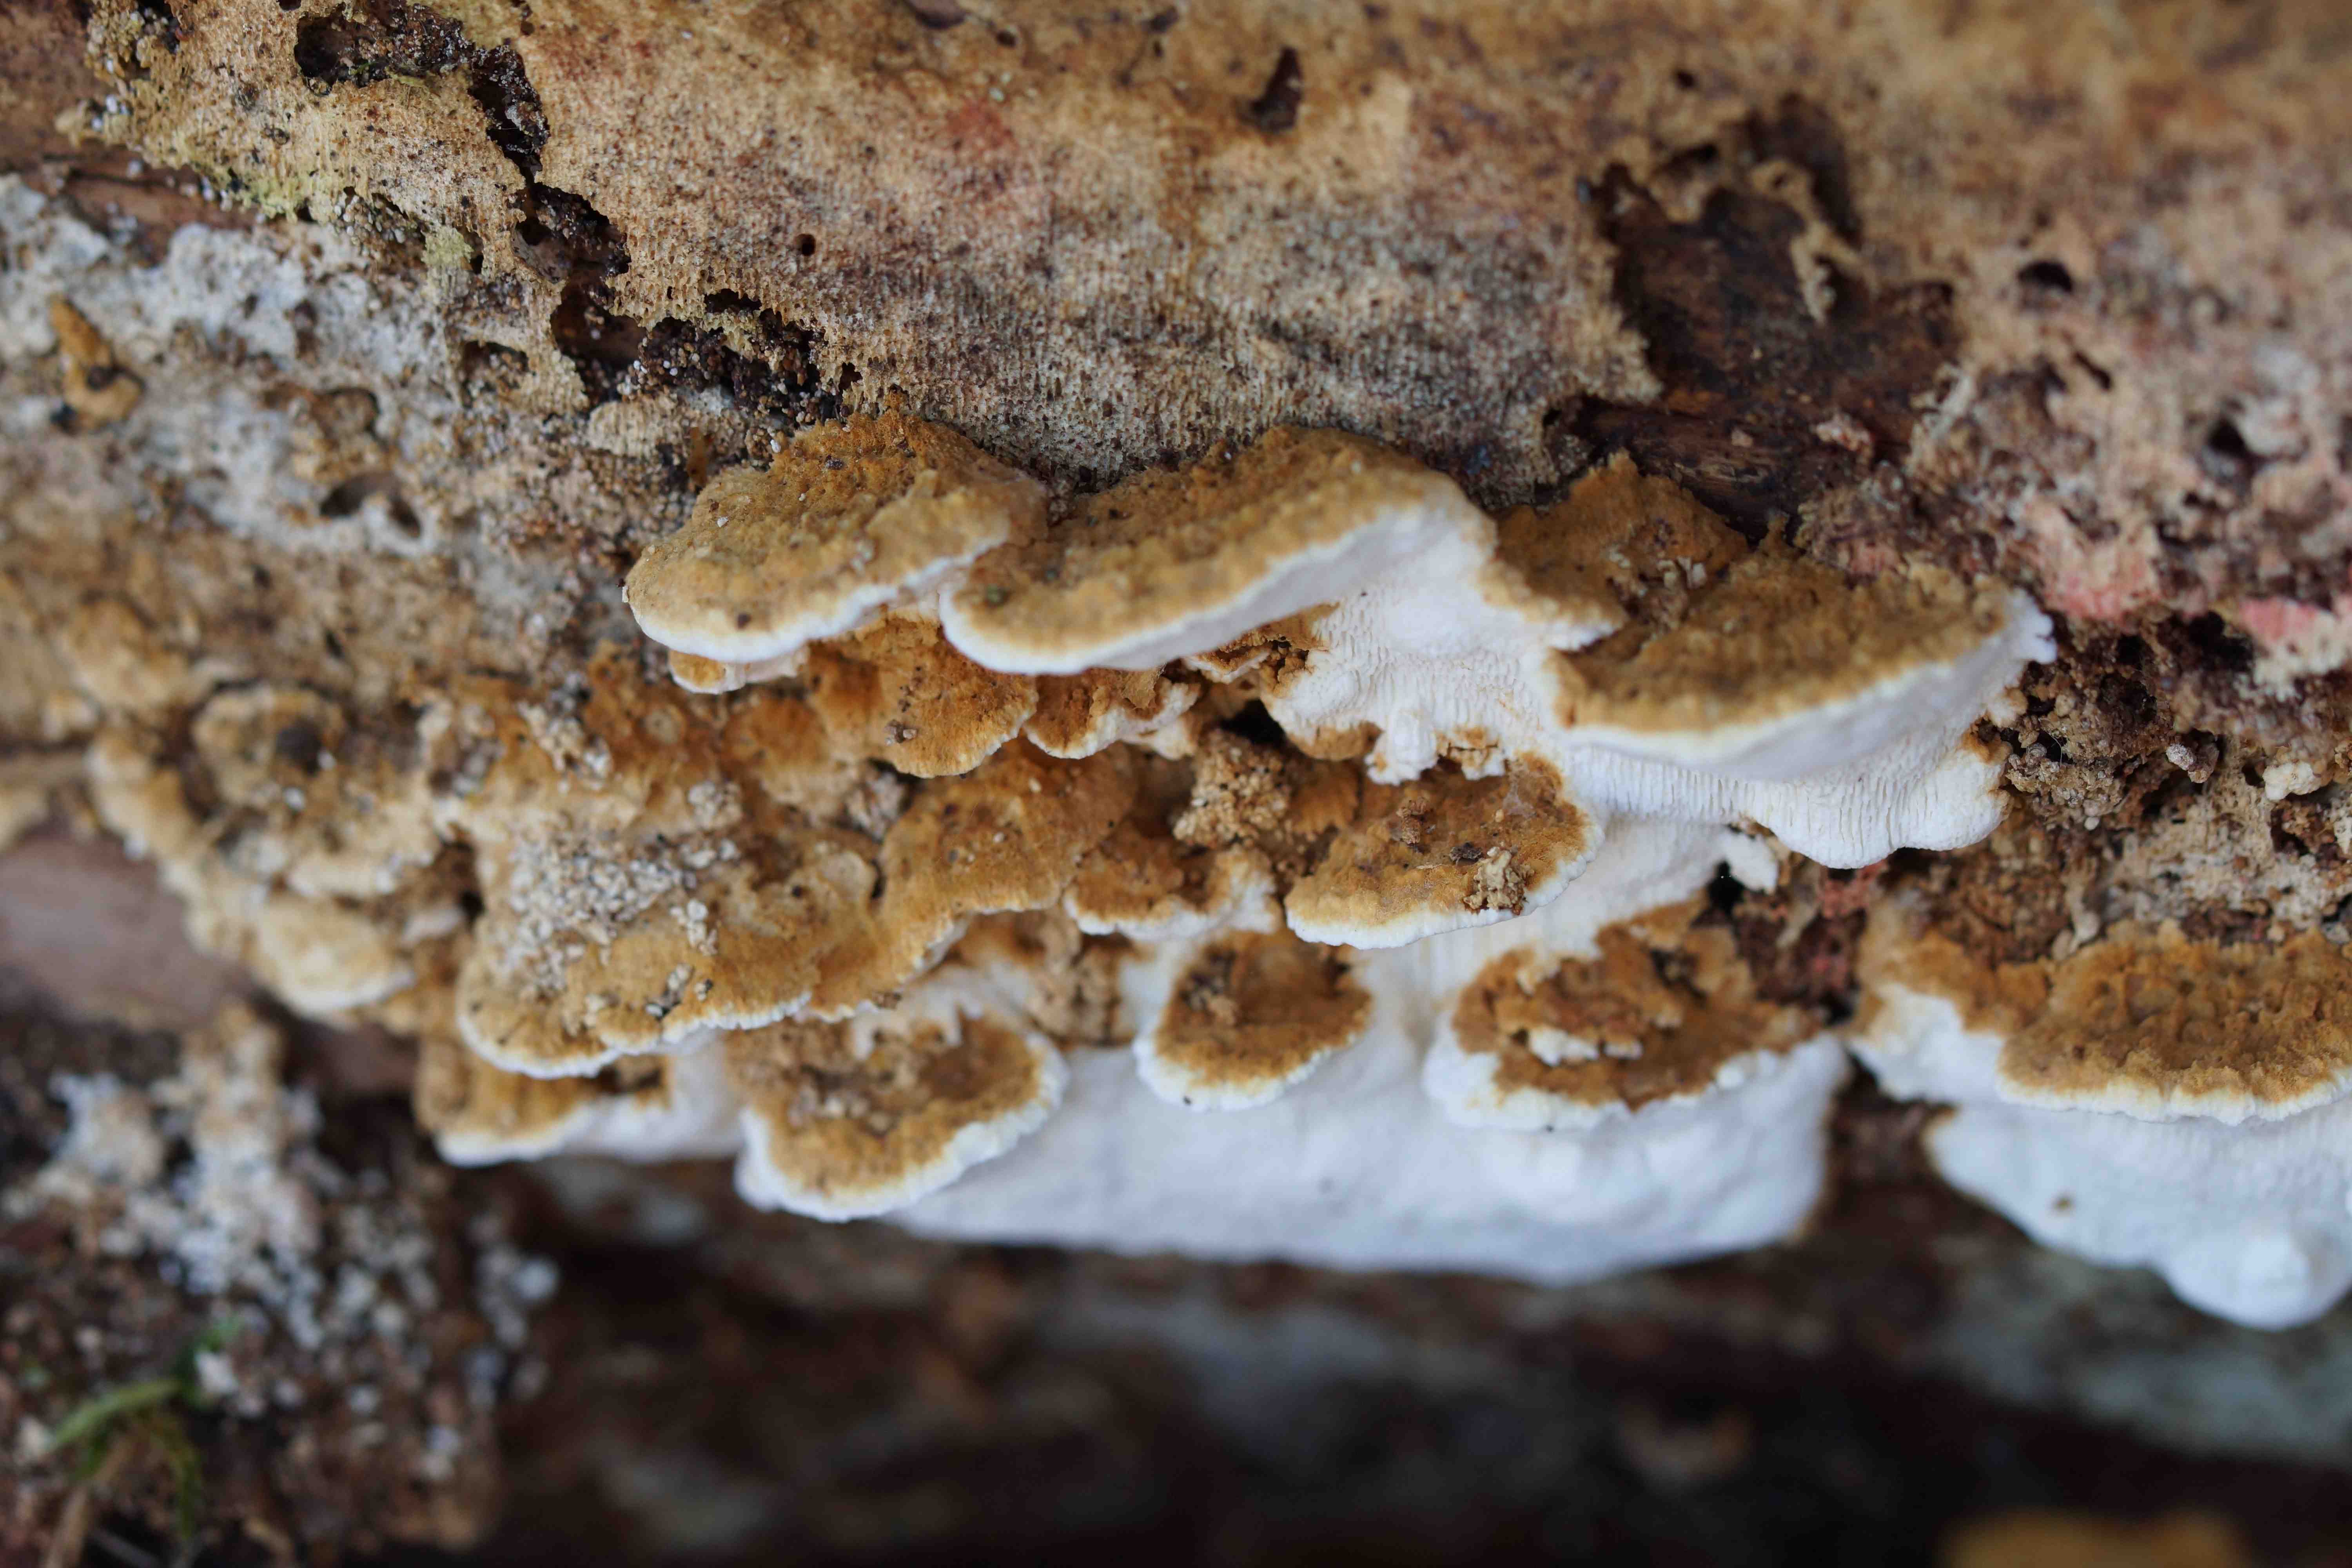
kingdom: Fungi
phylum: Basidiomycota
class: Agaricomycetes
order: Polyporales
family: Fomitopsidaceae
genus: Neoantrodia
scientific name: Neoantrodia serialis
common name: række-sejporesvamp
